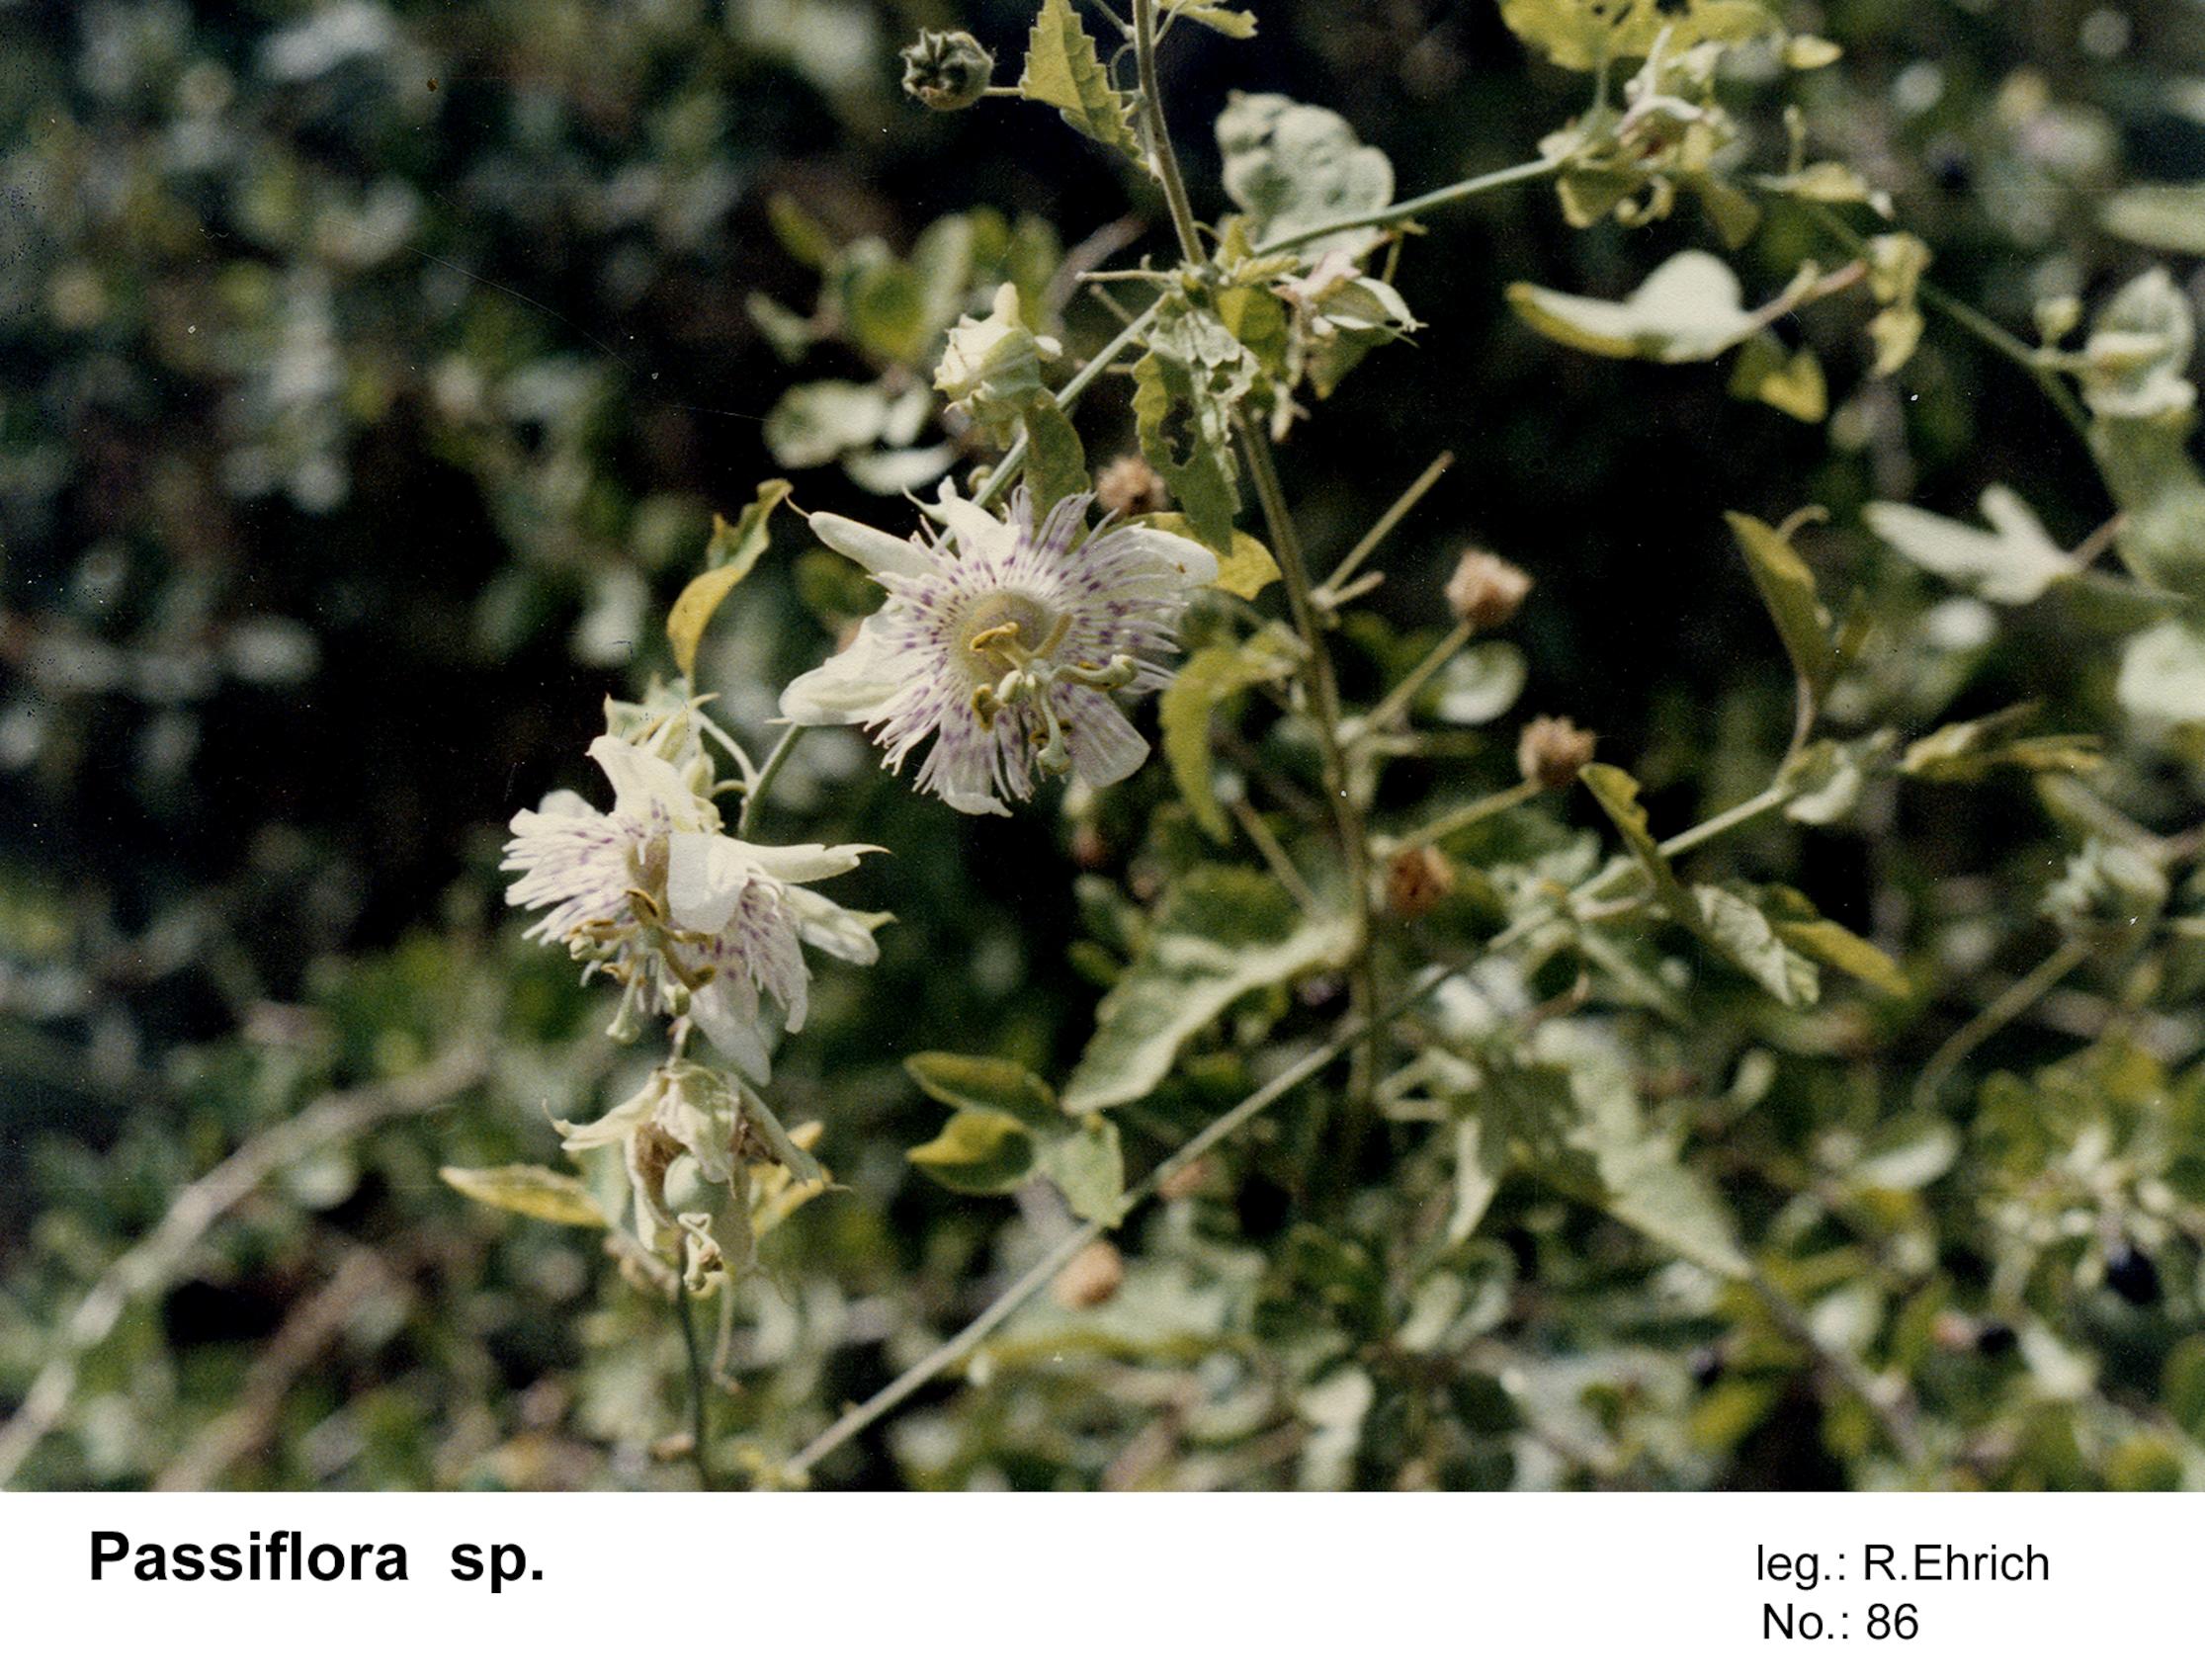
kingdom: Plantae
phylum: Tracheophyta
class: Magnoliopsida
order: Malpighiales
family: Passifloraceae
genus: Passiflora
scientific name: Passiflora
